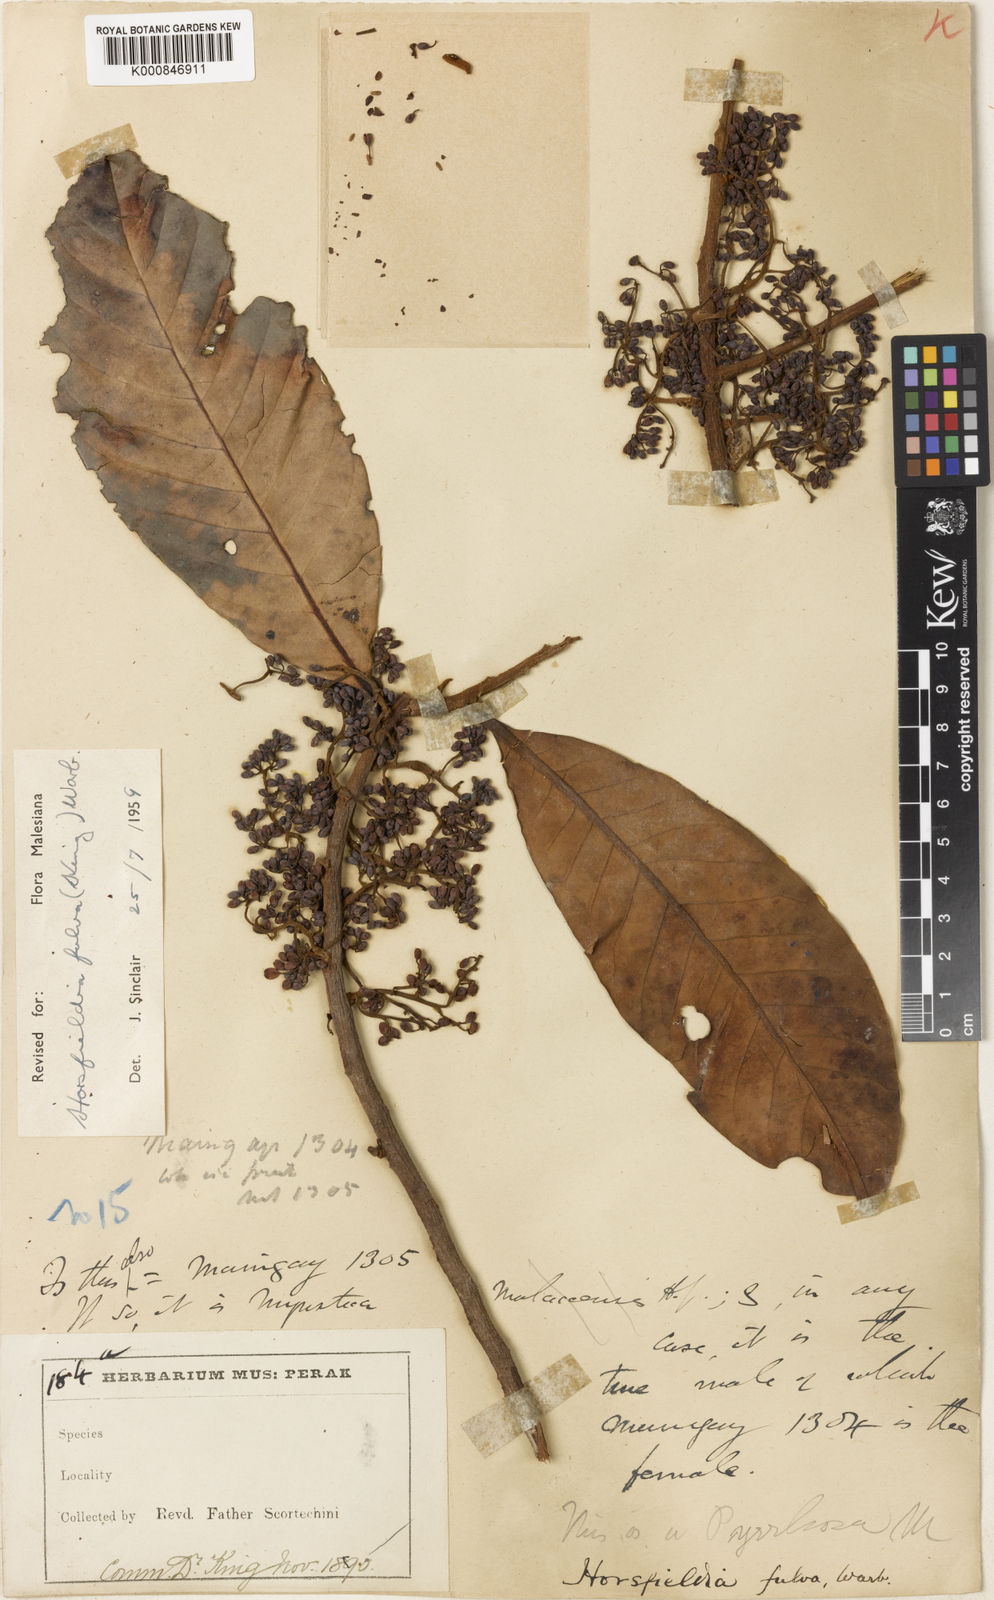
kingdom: Plantae
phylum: Tracheophyta
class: Magnoliopsida
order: Magnoliales
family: Myristicaceae
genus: Horsfieldia
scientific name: Horsfieldia fulva
